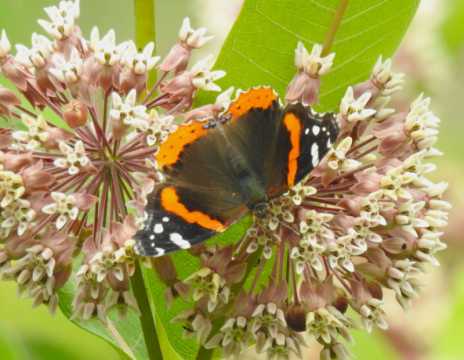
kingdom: Animalia
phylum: Arthropoda
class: Insecta
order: Lepidoptera
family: Nymphalidae
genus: Vanessa
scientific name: Vanessa atalanta
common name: Red Admiral
